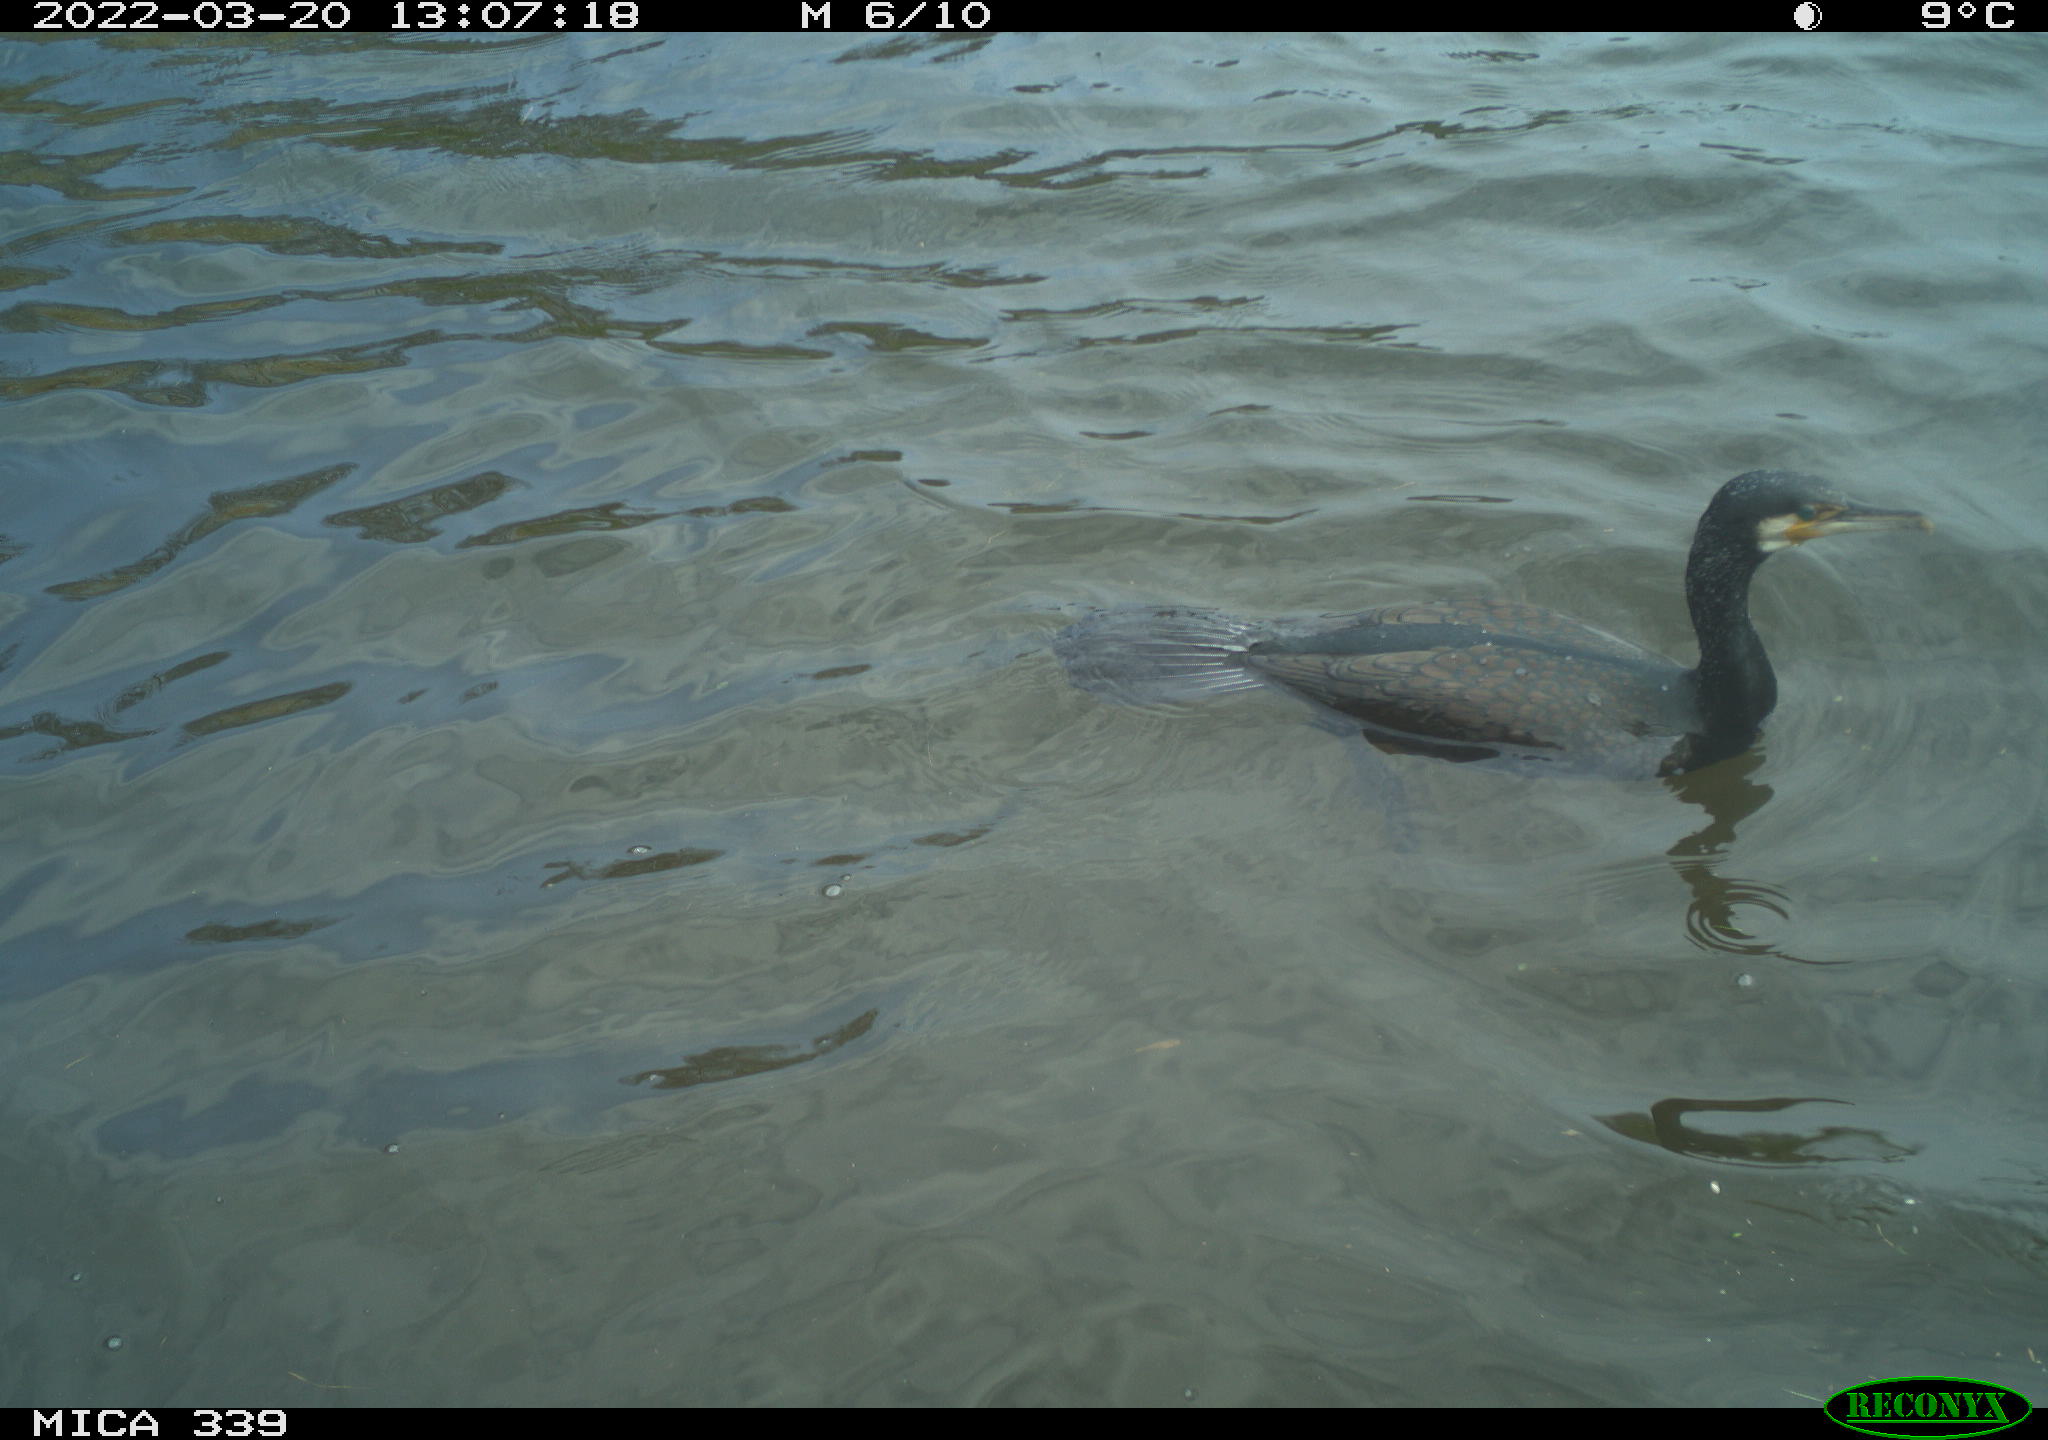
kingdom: Animalia
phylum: Chordata
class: Aves
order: Suliformes
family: Phalacrocoracidae
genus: Phalacrocorax
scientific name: Phalacrocorax carbo
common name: Great cormorant
